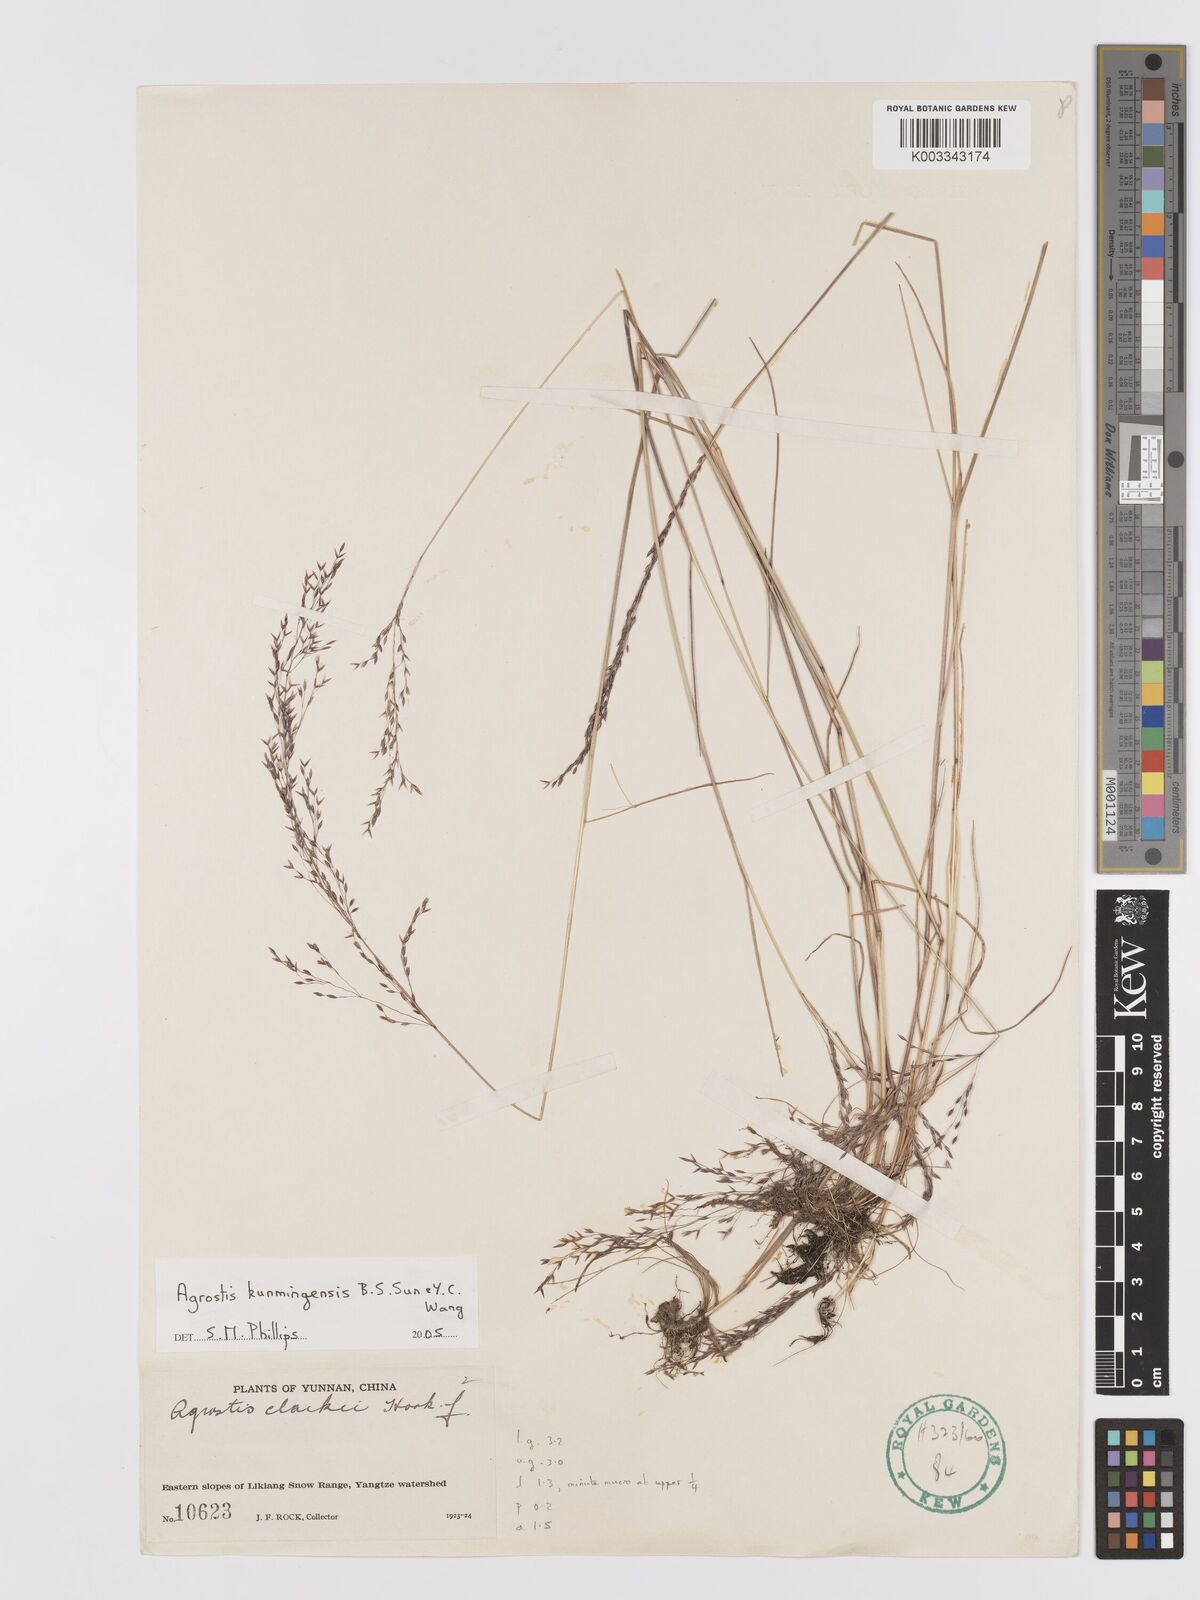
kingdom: Plantae
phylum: Tracheophyta
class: Liliopsida
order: Poales
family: Poaceae
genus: Agrostis
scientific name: Agrostis vinealis
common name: Brown bent
